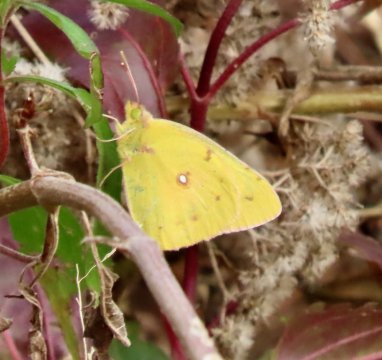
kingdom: Animalia
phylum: Arthropoda
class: Insecta
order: Lepidoptera
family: Pieridae
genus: Colias
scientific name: Colias eurytheme
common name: Orange Sulphur
